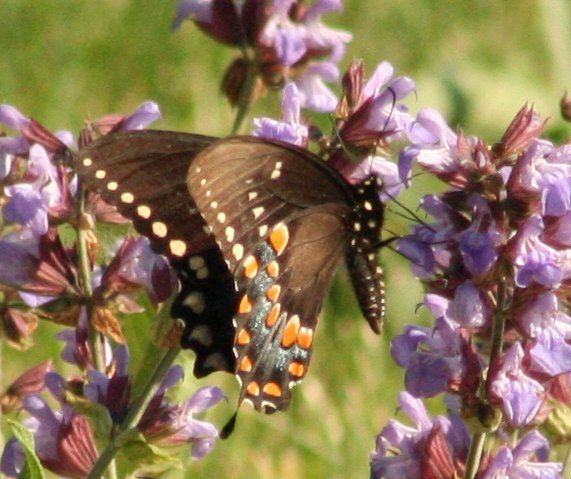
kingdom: Animalia
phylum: Arthropoda
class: Insecta
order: Lepidoptera
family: Papilionidae
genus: Pterourus
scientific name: Pterourus troilus
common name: Spicebush Swallowtail
